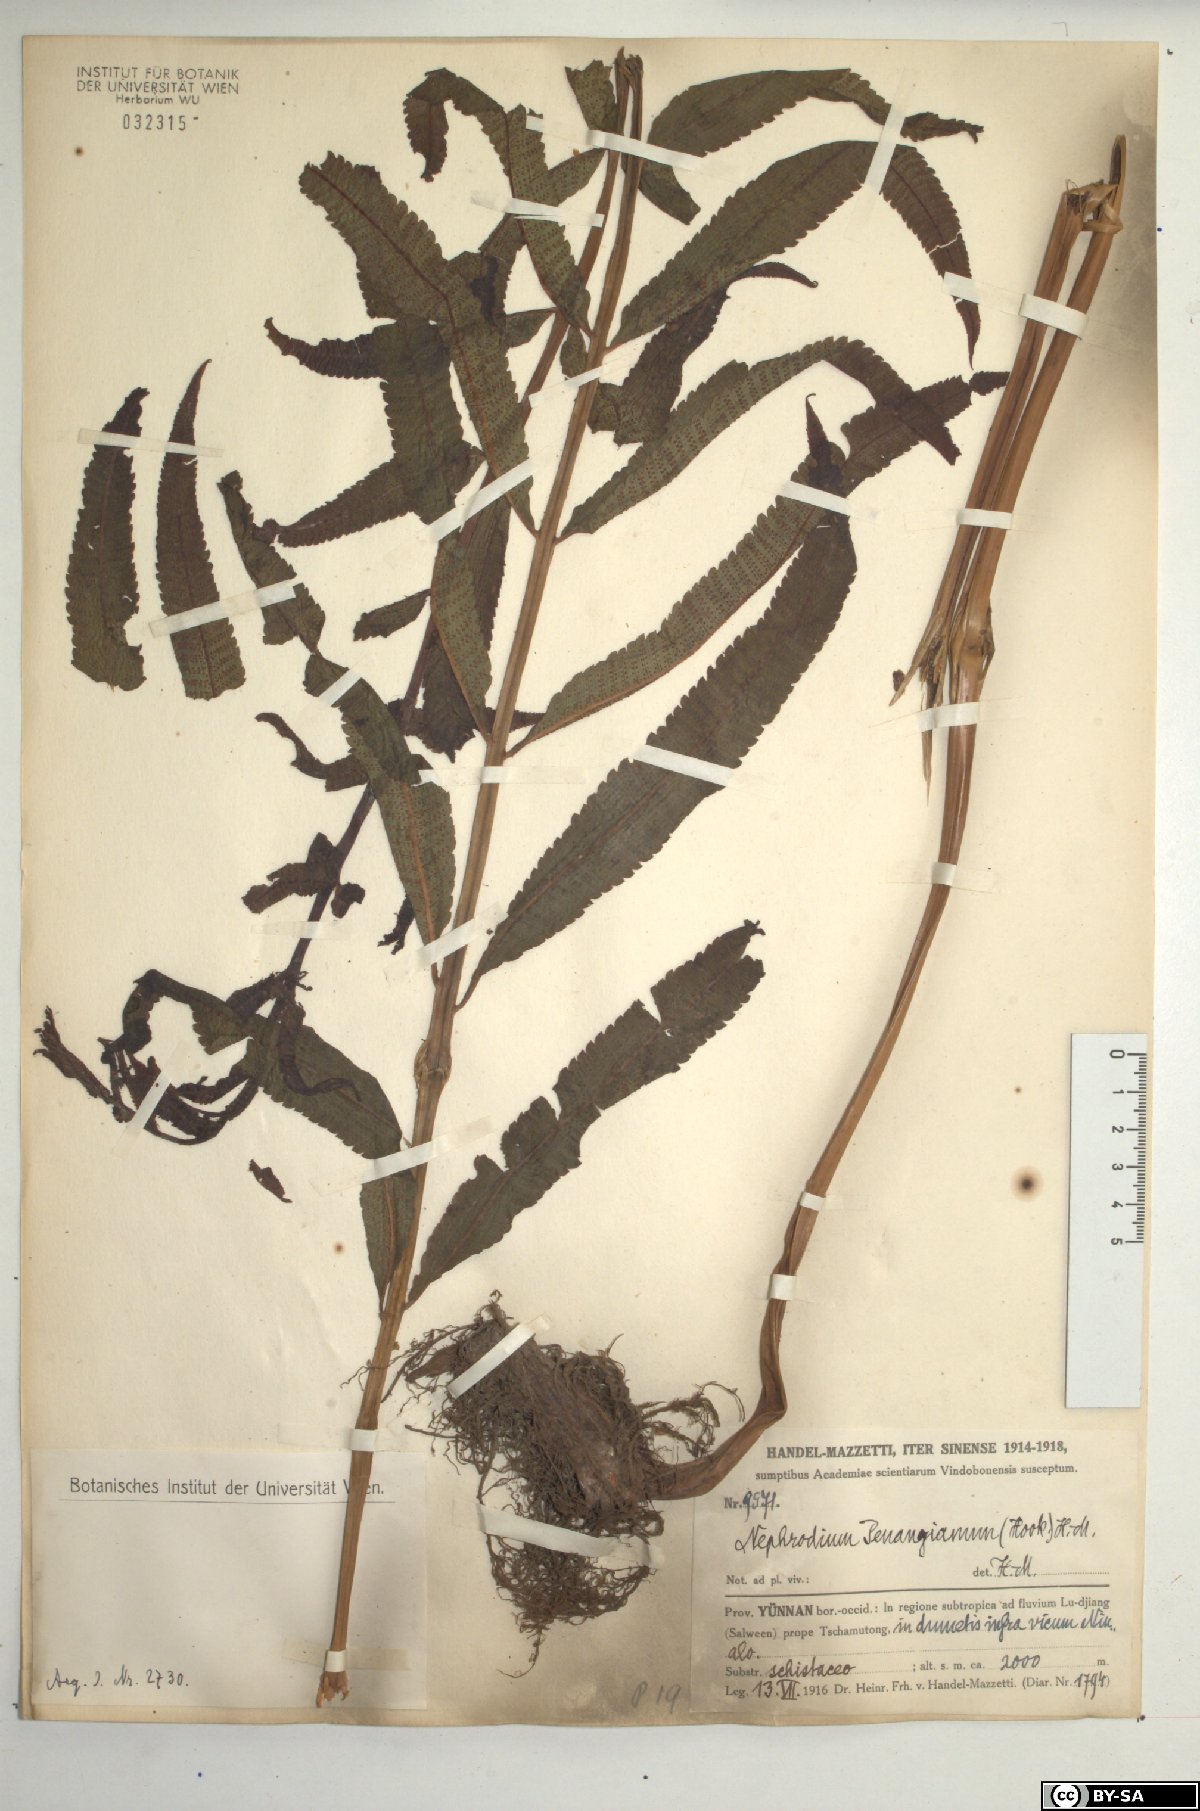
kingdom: Plantae
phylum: Tracheophyta
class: Polypodiopsida
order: Polypodiales
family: Thelypteridaceae
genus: Menisciopsis
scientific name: Menisciopsis penangiana
